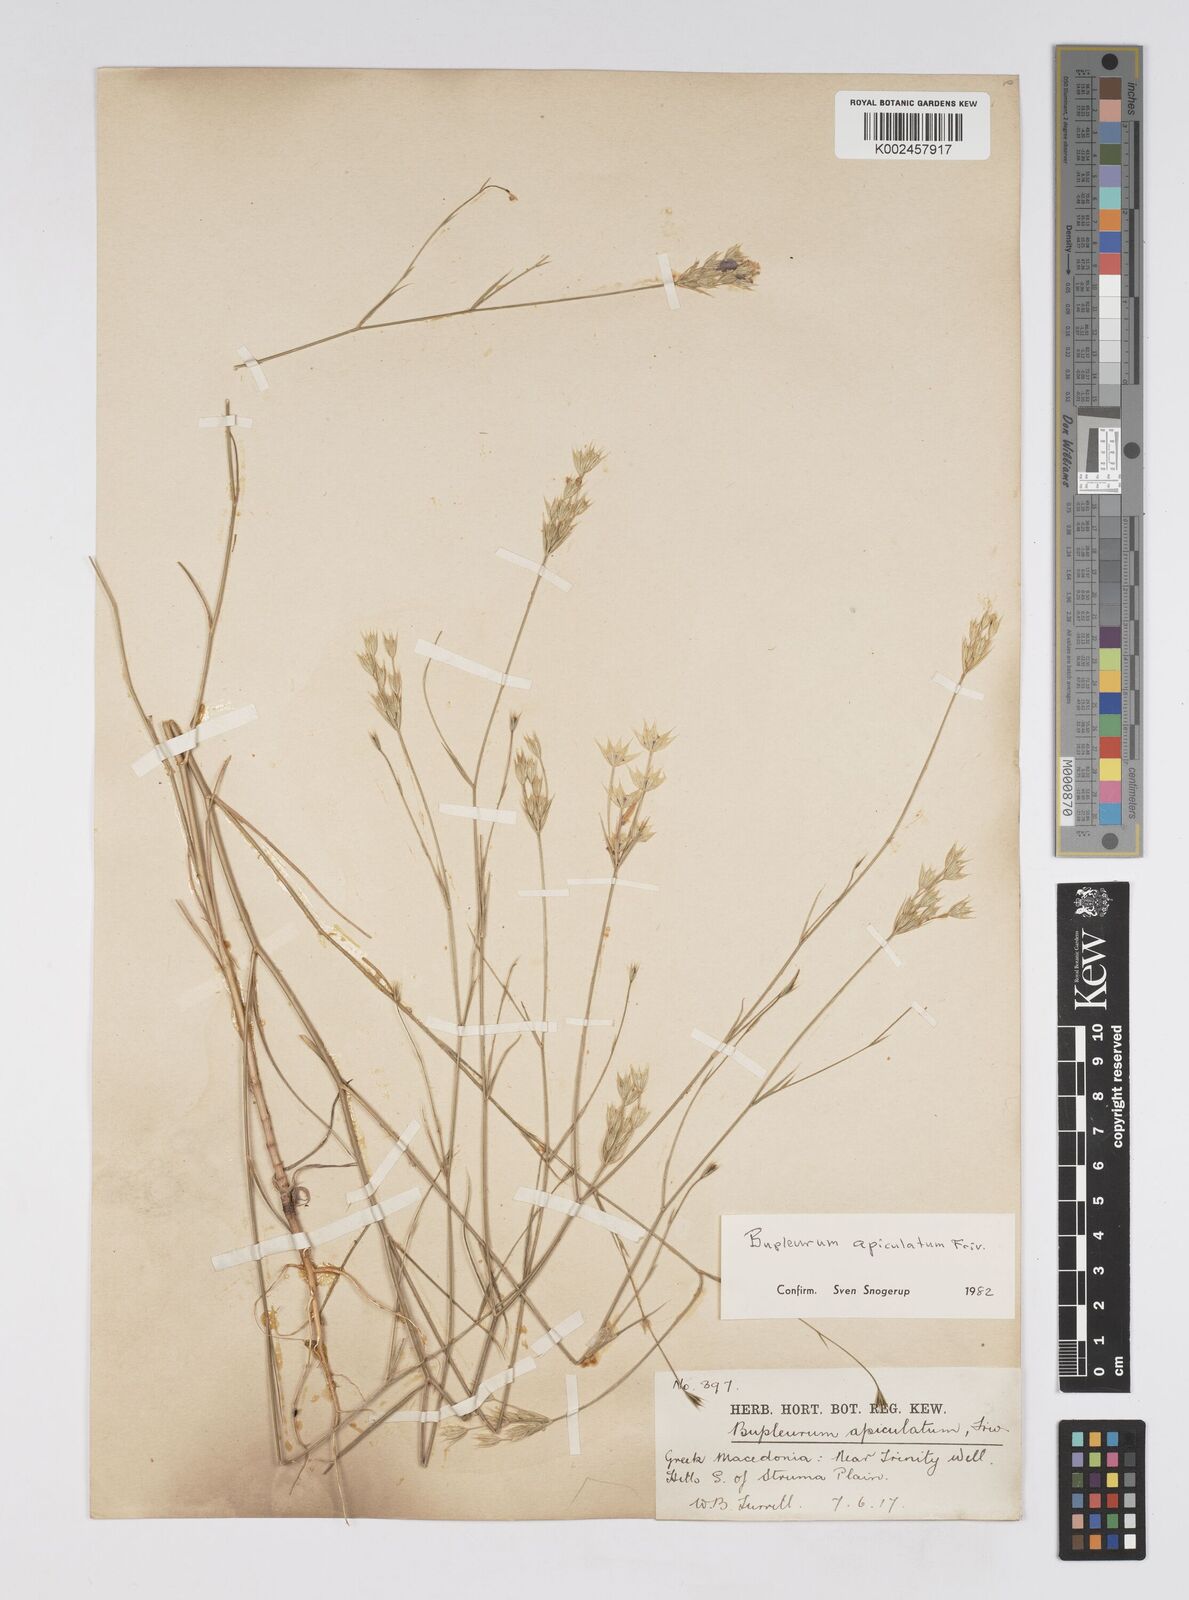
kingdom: Plantae
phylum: Tracheophyta
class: Magnoliopsida
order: Apiales
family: Apiaceae
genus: Bupleurum
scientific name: Bupleurum apiculatum
